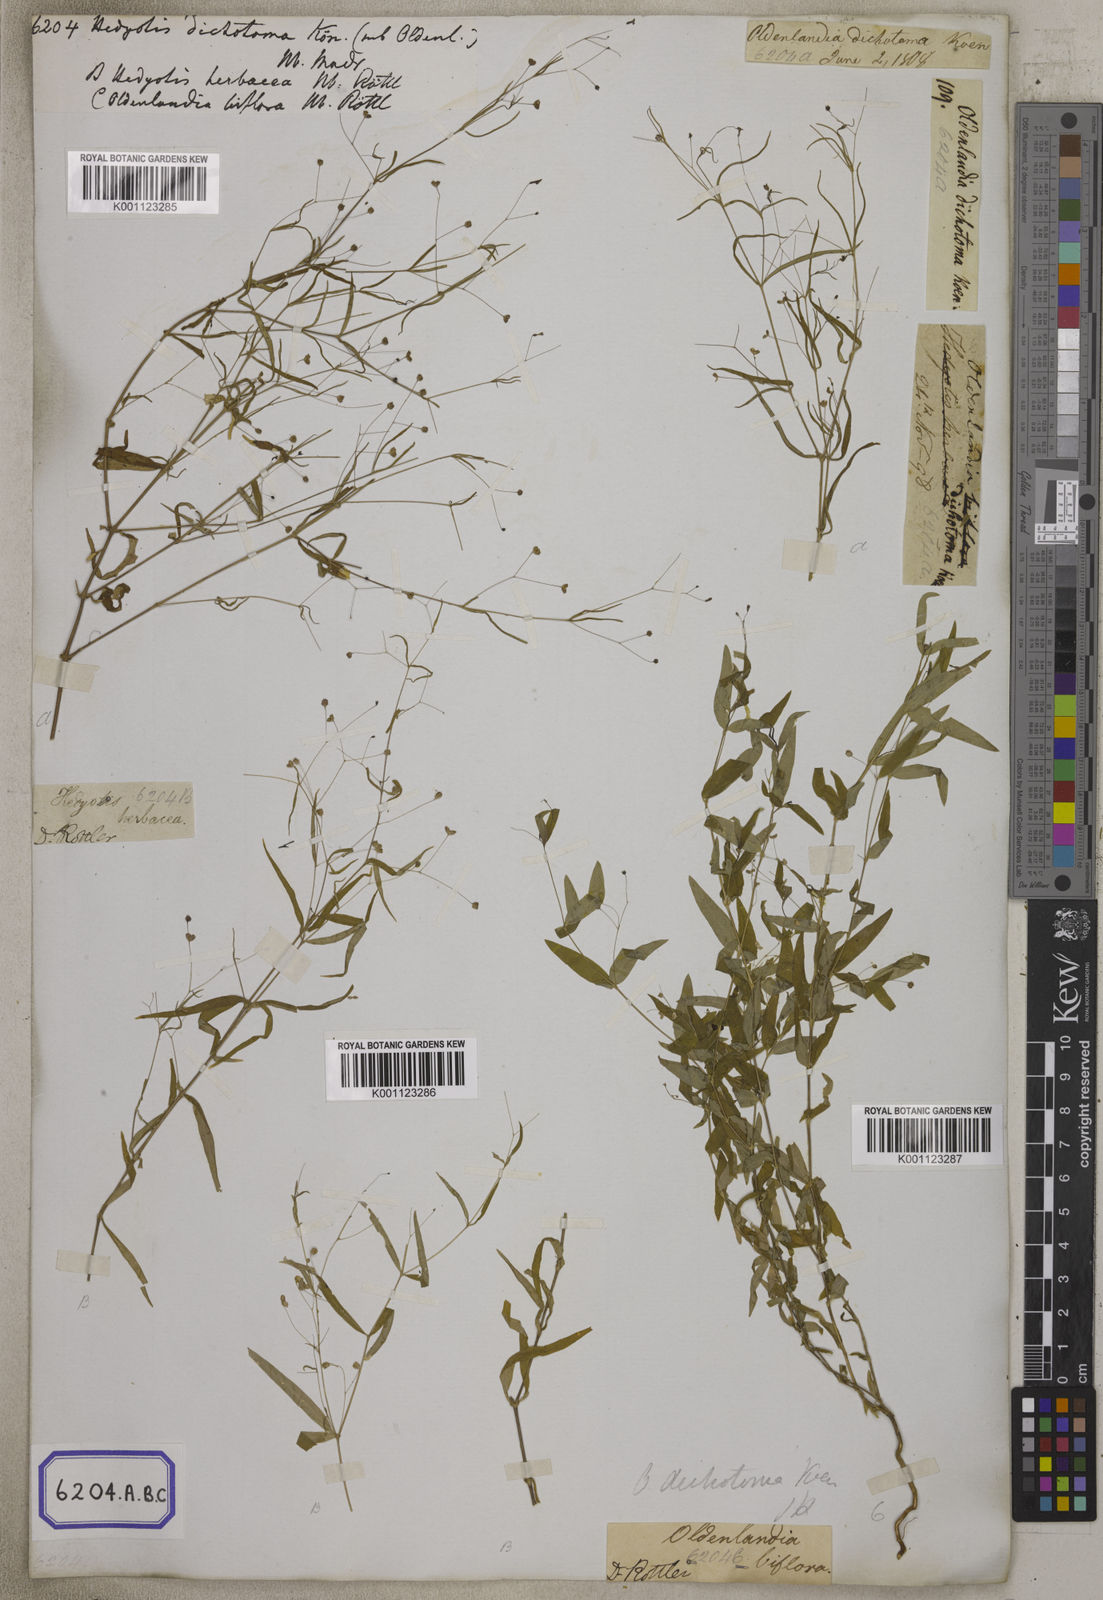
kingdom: Plantae
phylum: Tracheophyta
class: Magnoliopsida
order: Gentianales
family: Rubiaceae
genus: Oldenlandia
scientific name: Oldenlandia affinis
